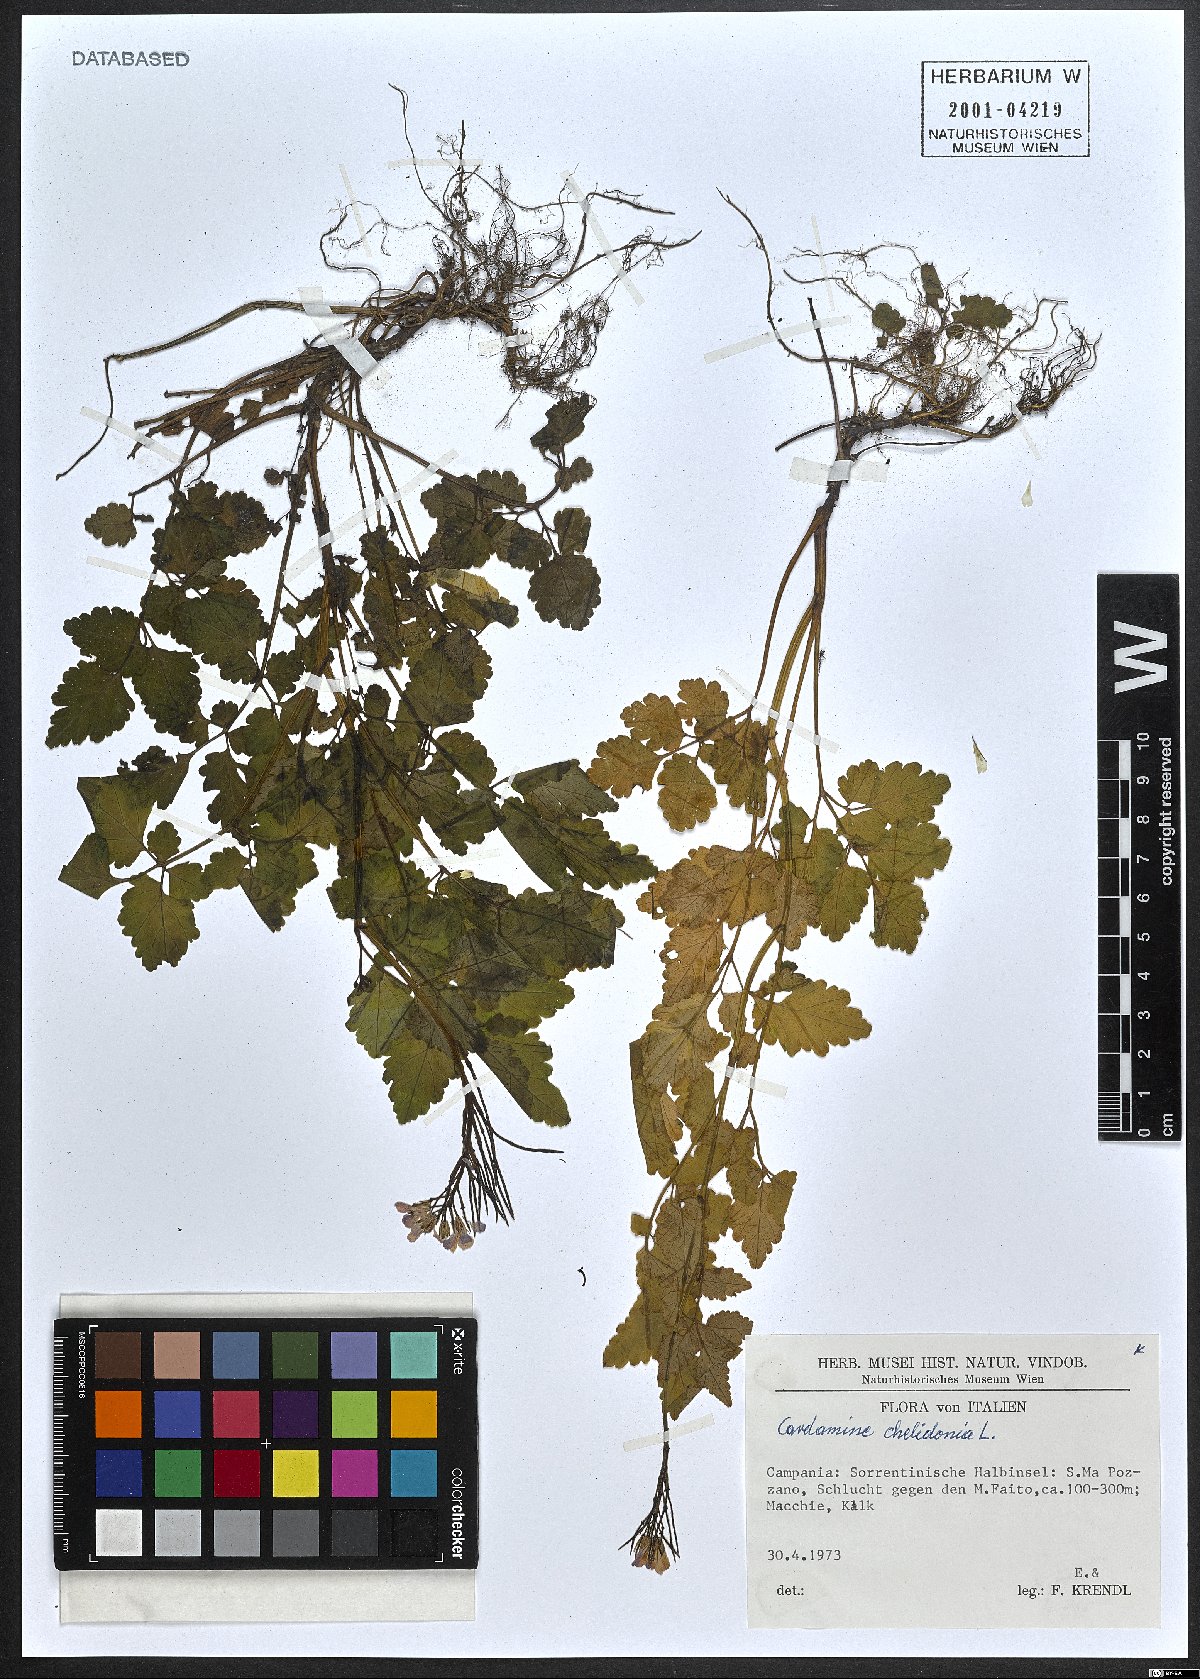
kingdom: Plantae
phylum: Tracheophyta
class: Magnoliopsida
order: Brassicales
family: Brassicaceae
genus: Cardamine
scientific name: Cardamine chelidonia
